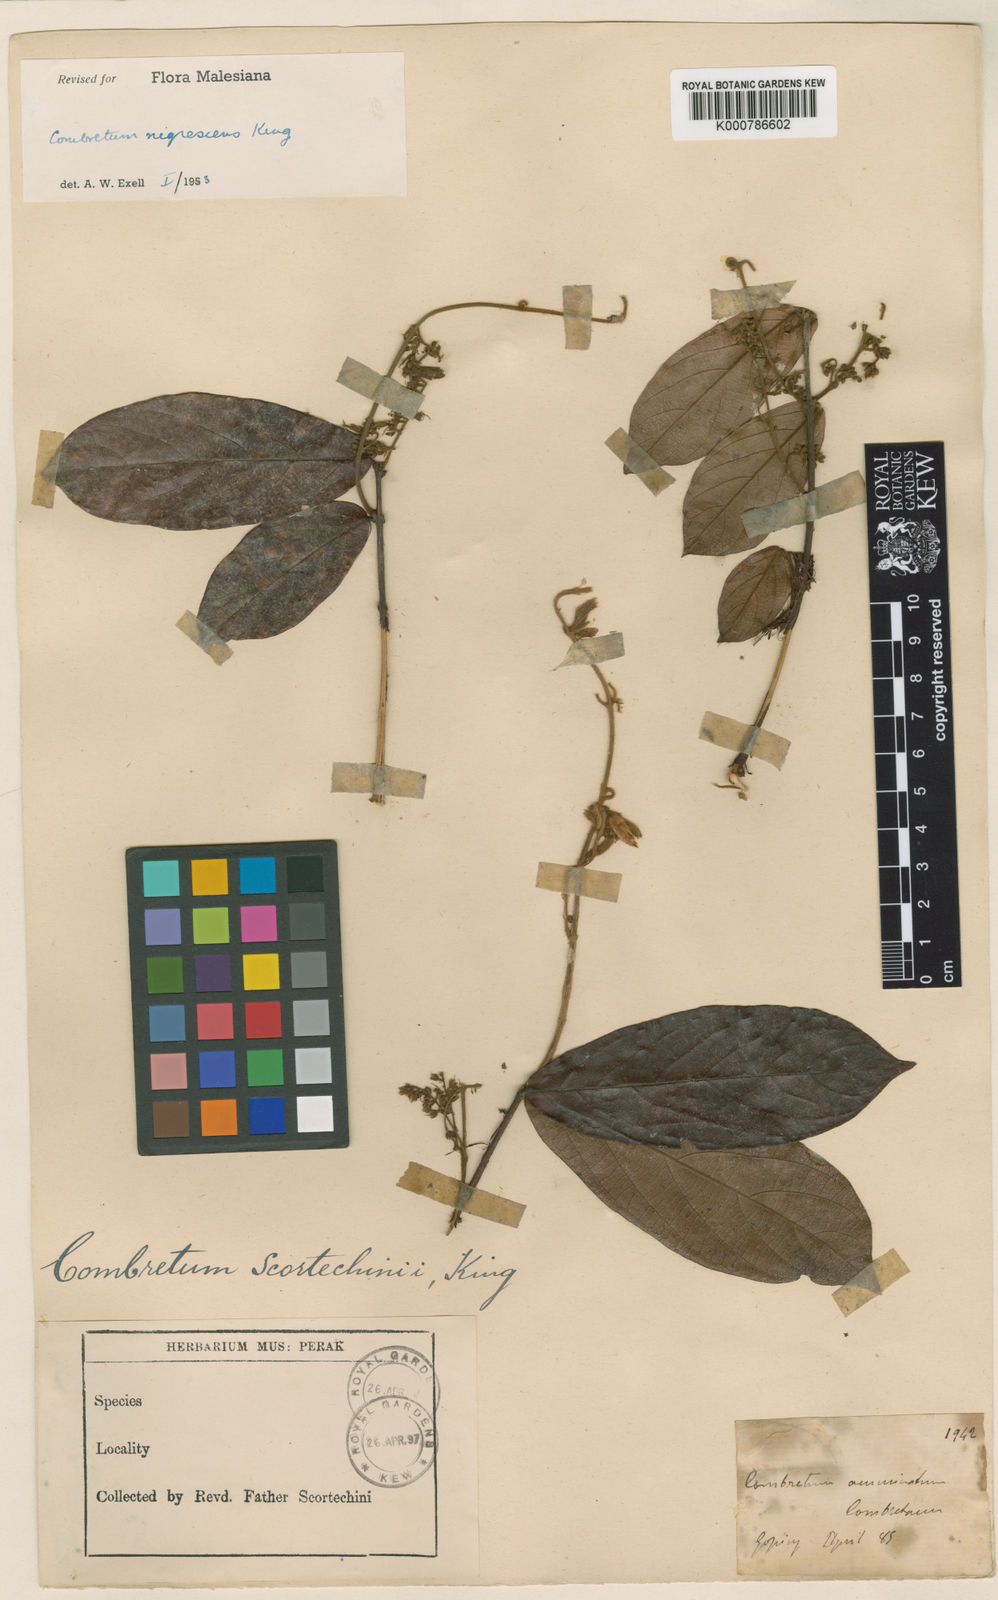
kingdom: Plantae
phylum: Tracheophyta
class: Magnoliopsida
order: Myrtales
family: Combretaceae
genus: Combretum
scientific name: Combretum nigrescens
